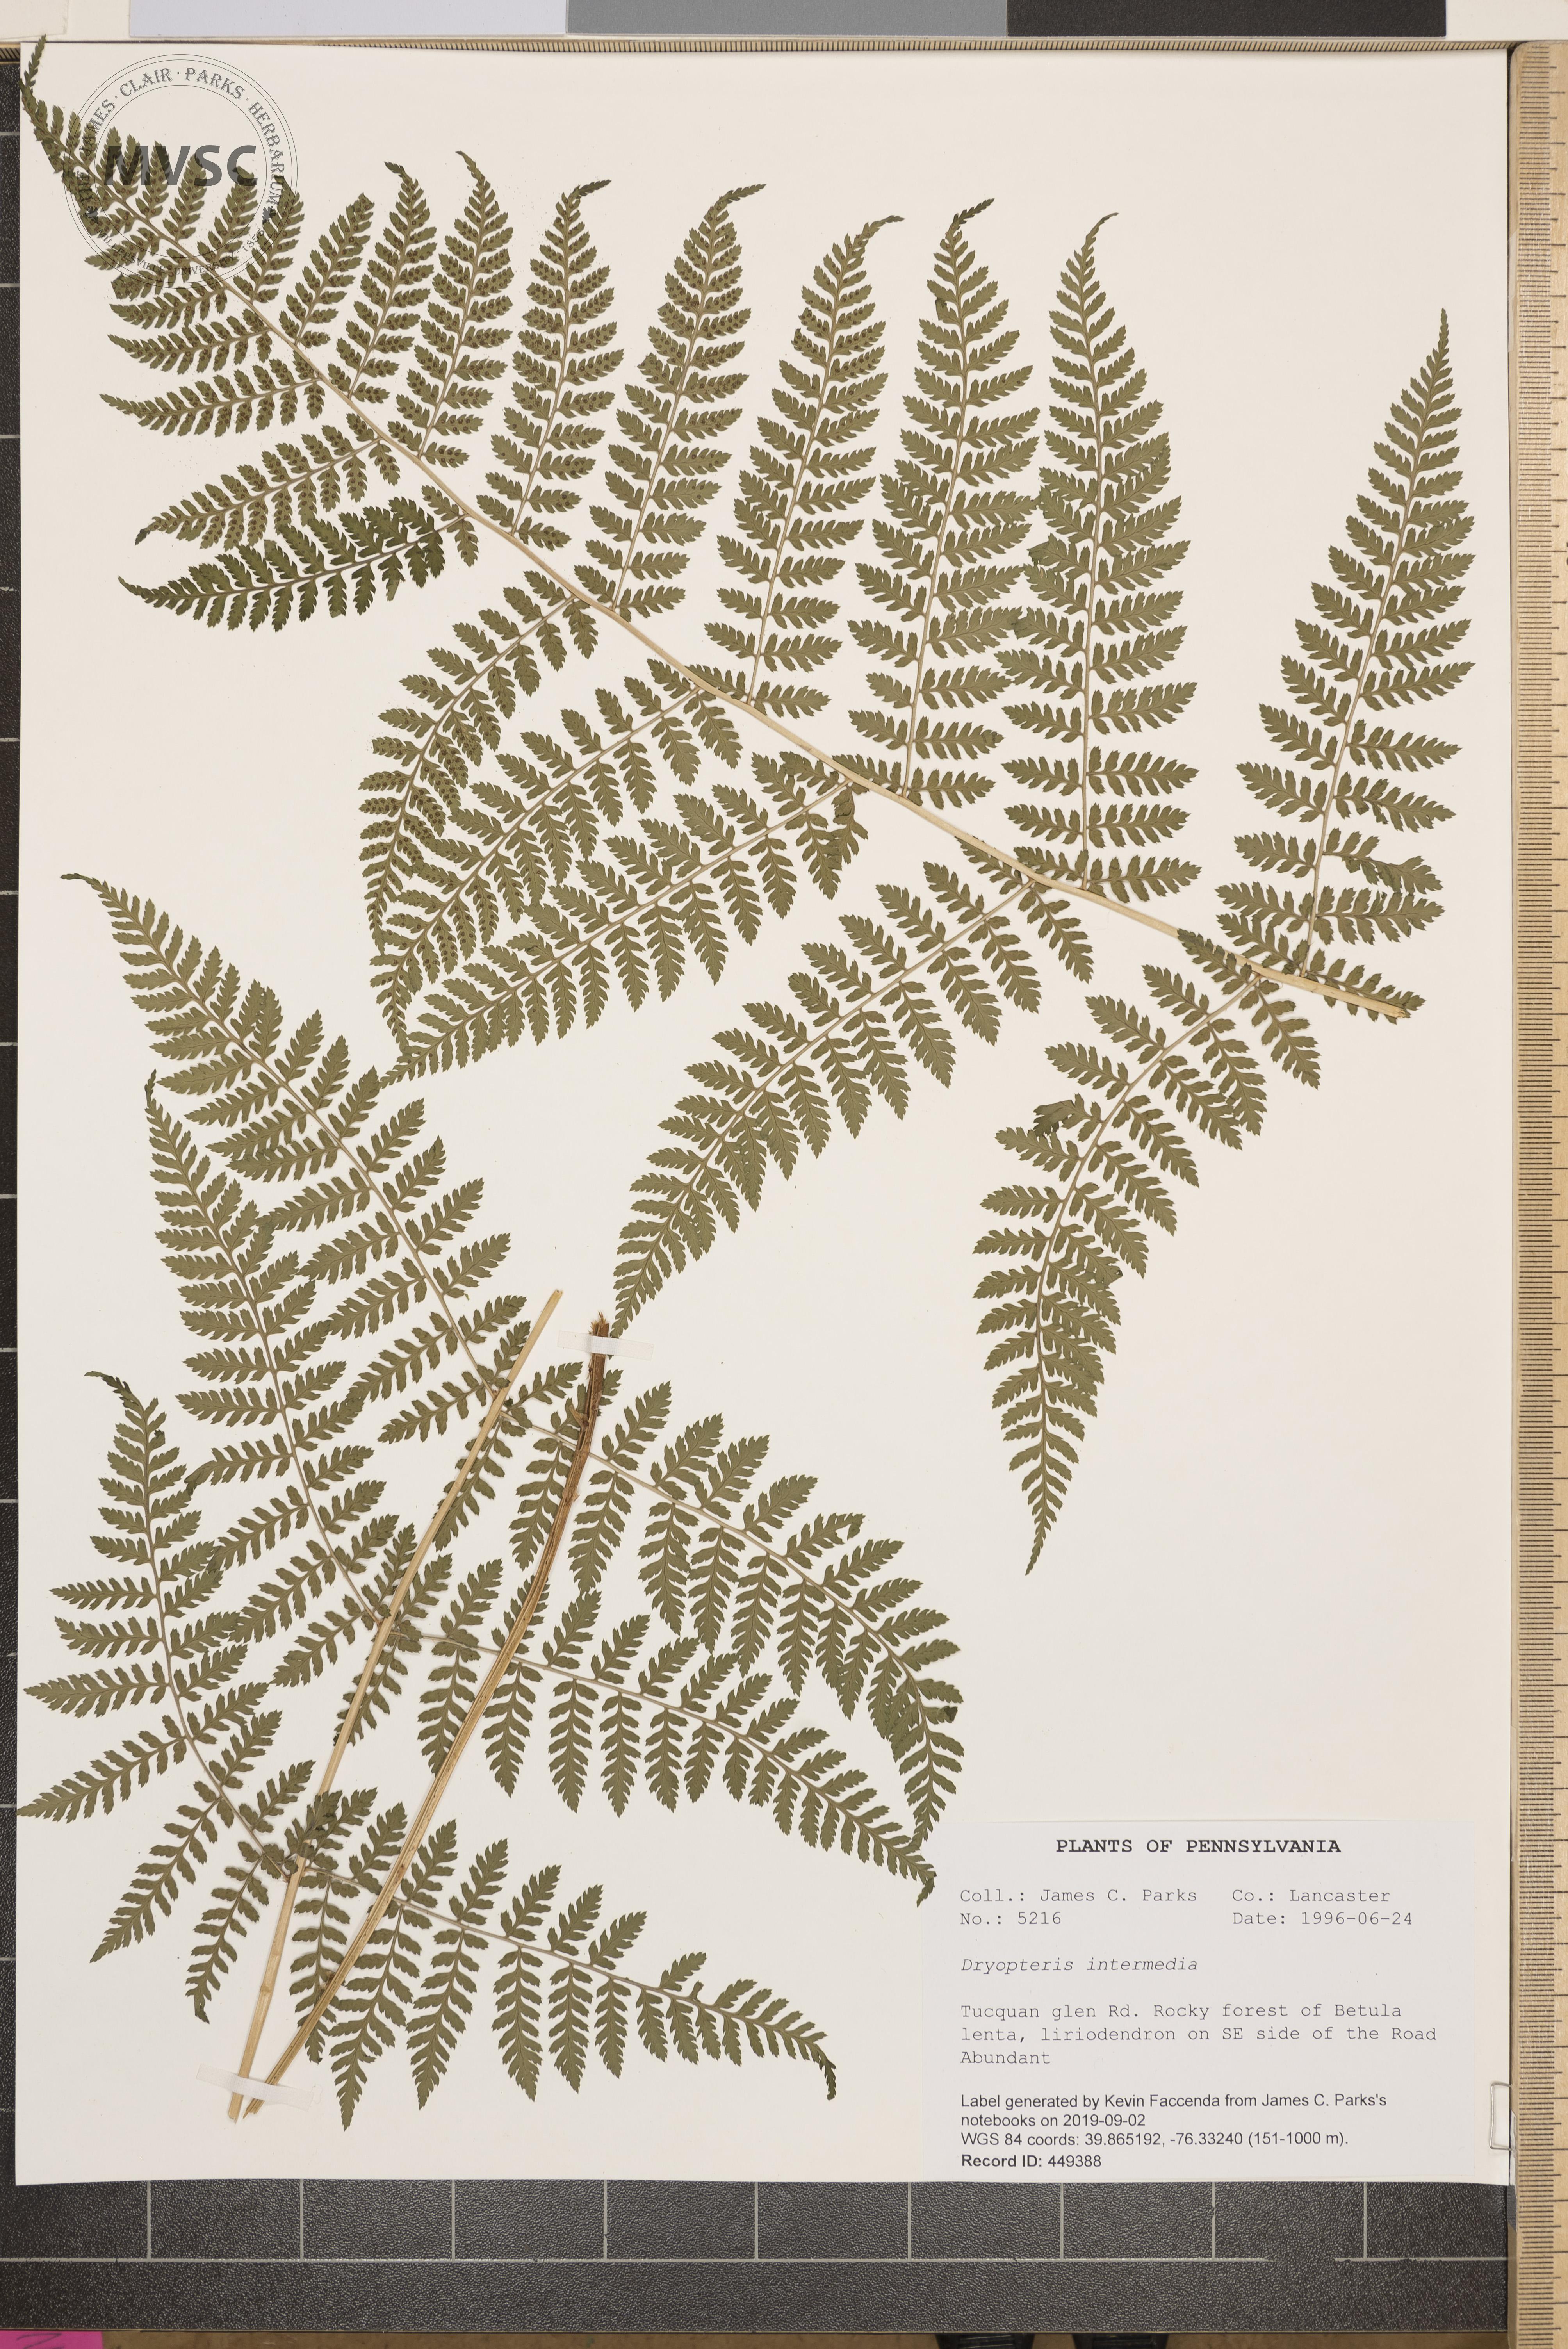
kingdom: Plantae
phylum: Tracheophyta
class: Polypodiopsida
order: Polypodiales
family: Dryopteridaceae
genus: Dryopteris
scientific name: Dryopteris intermedia
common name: Evergreen wood fern
